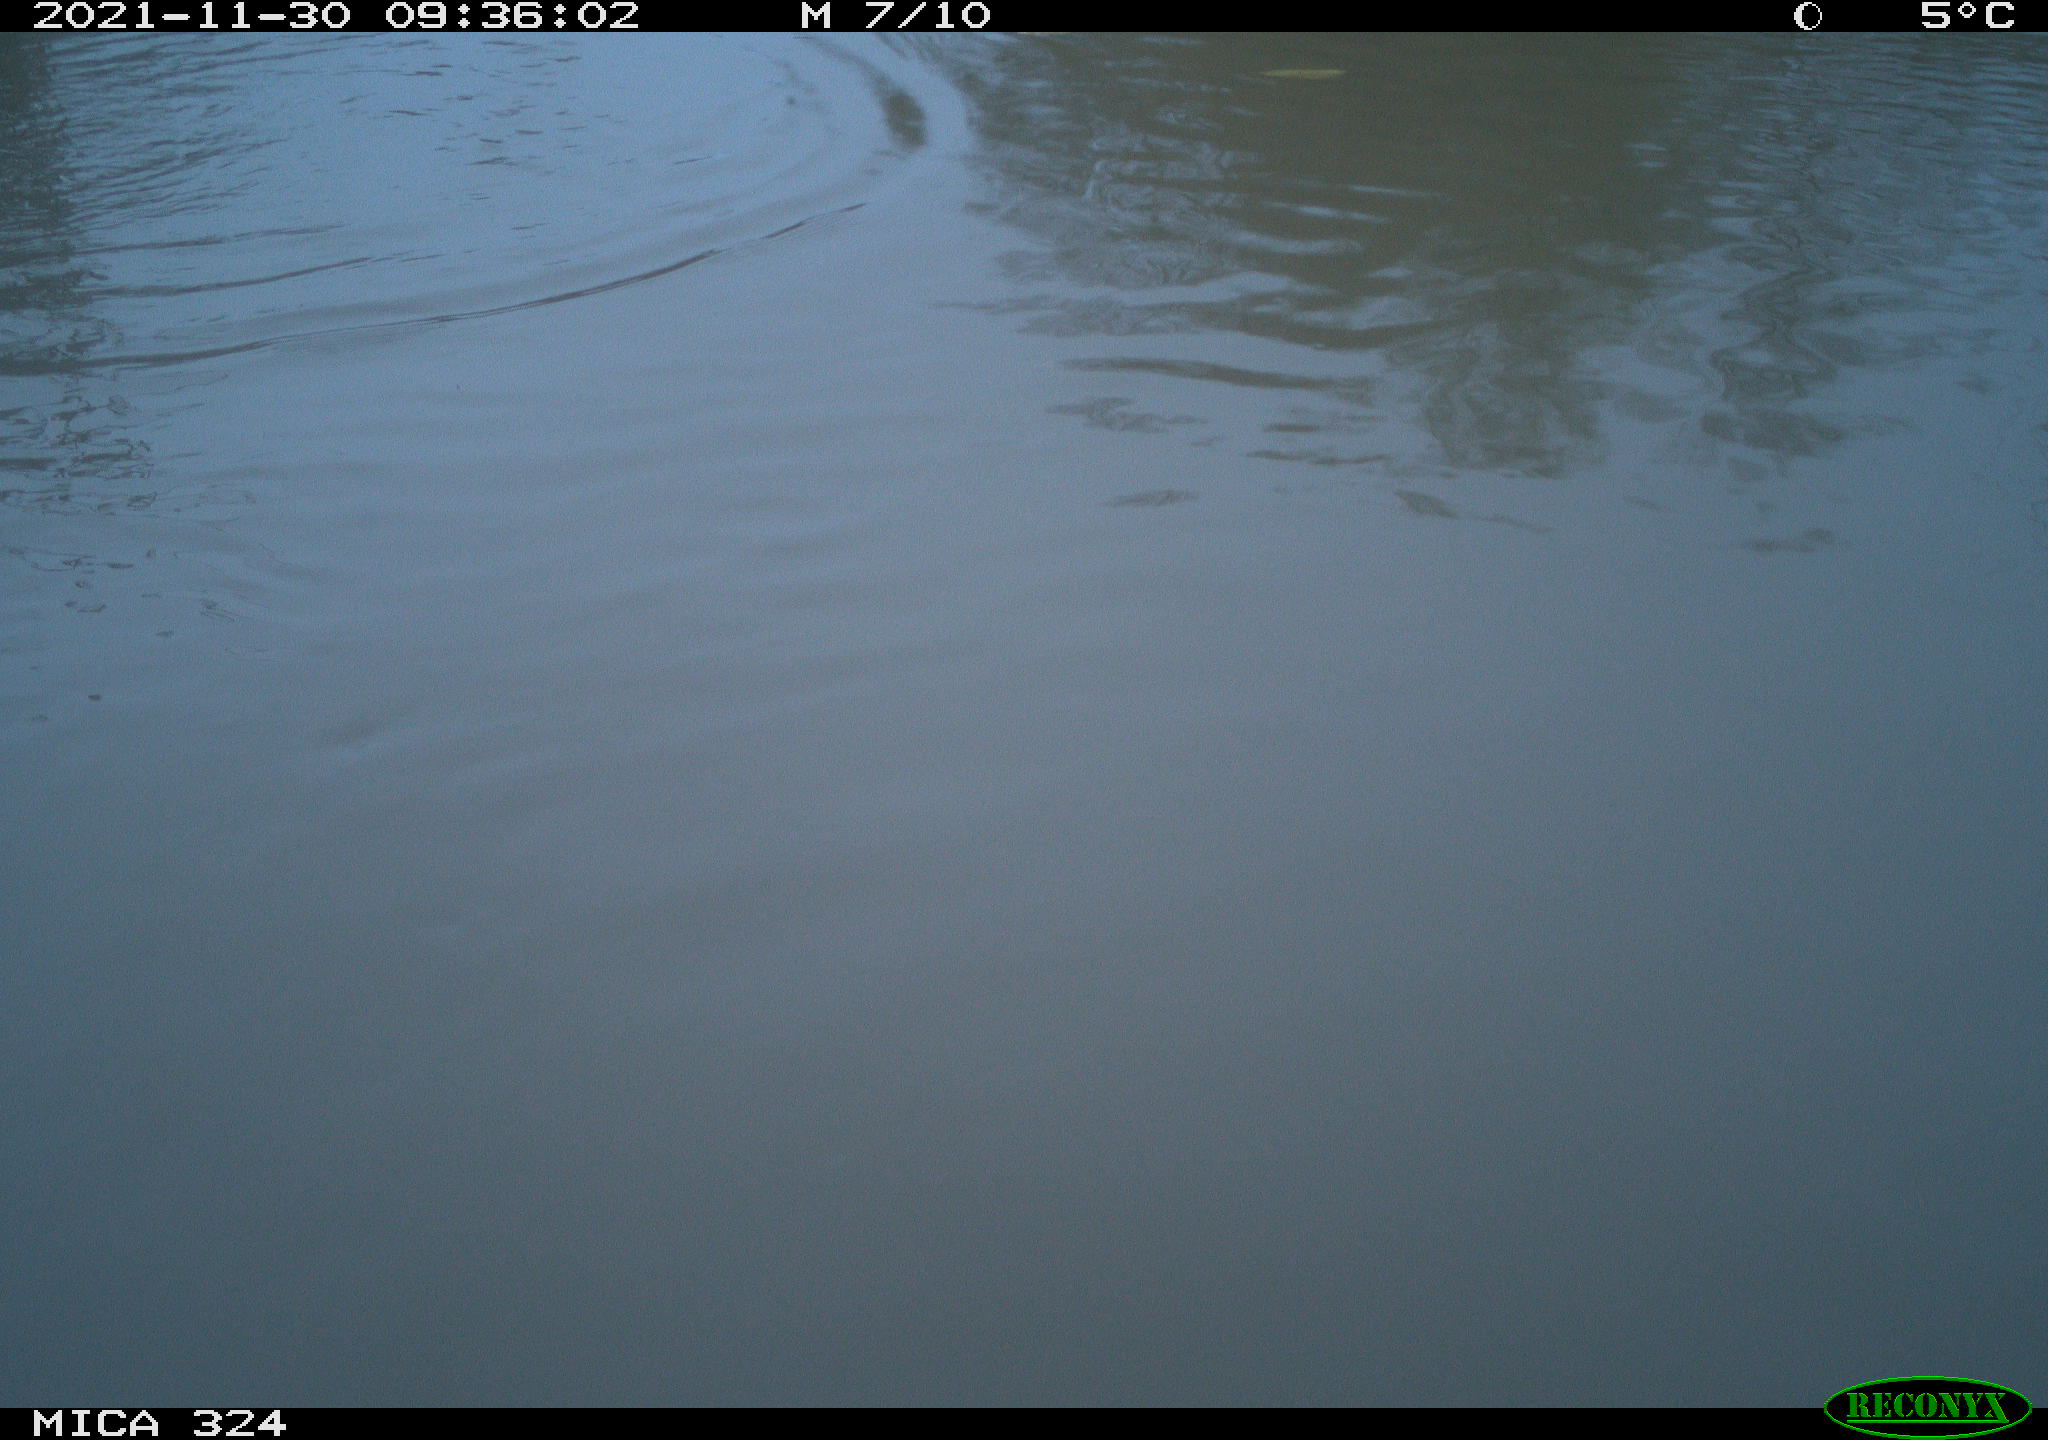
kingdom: Animalia
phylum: Chordata
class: Mammalia
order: Rodentia
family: Cricetidae
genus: Ondatra
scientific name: Ondatra zibethicus
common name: Muskrat
